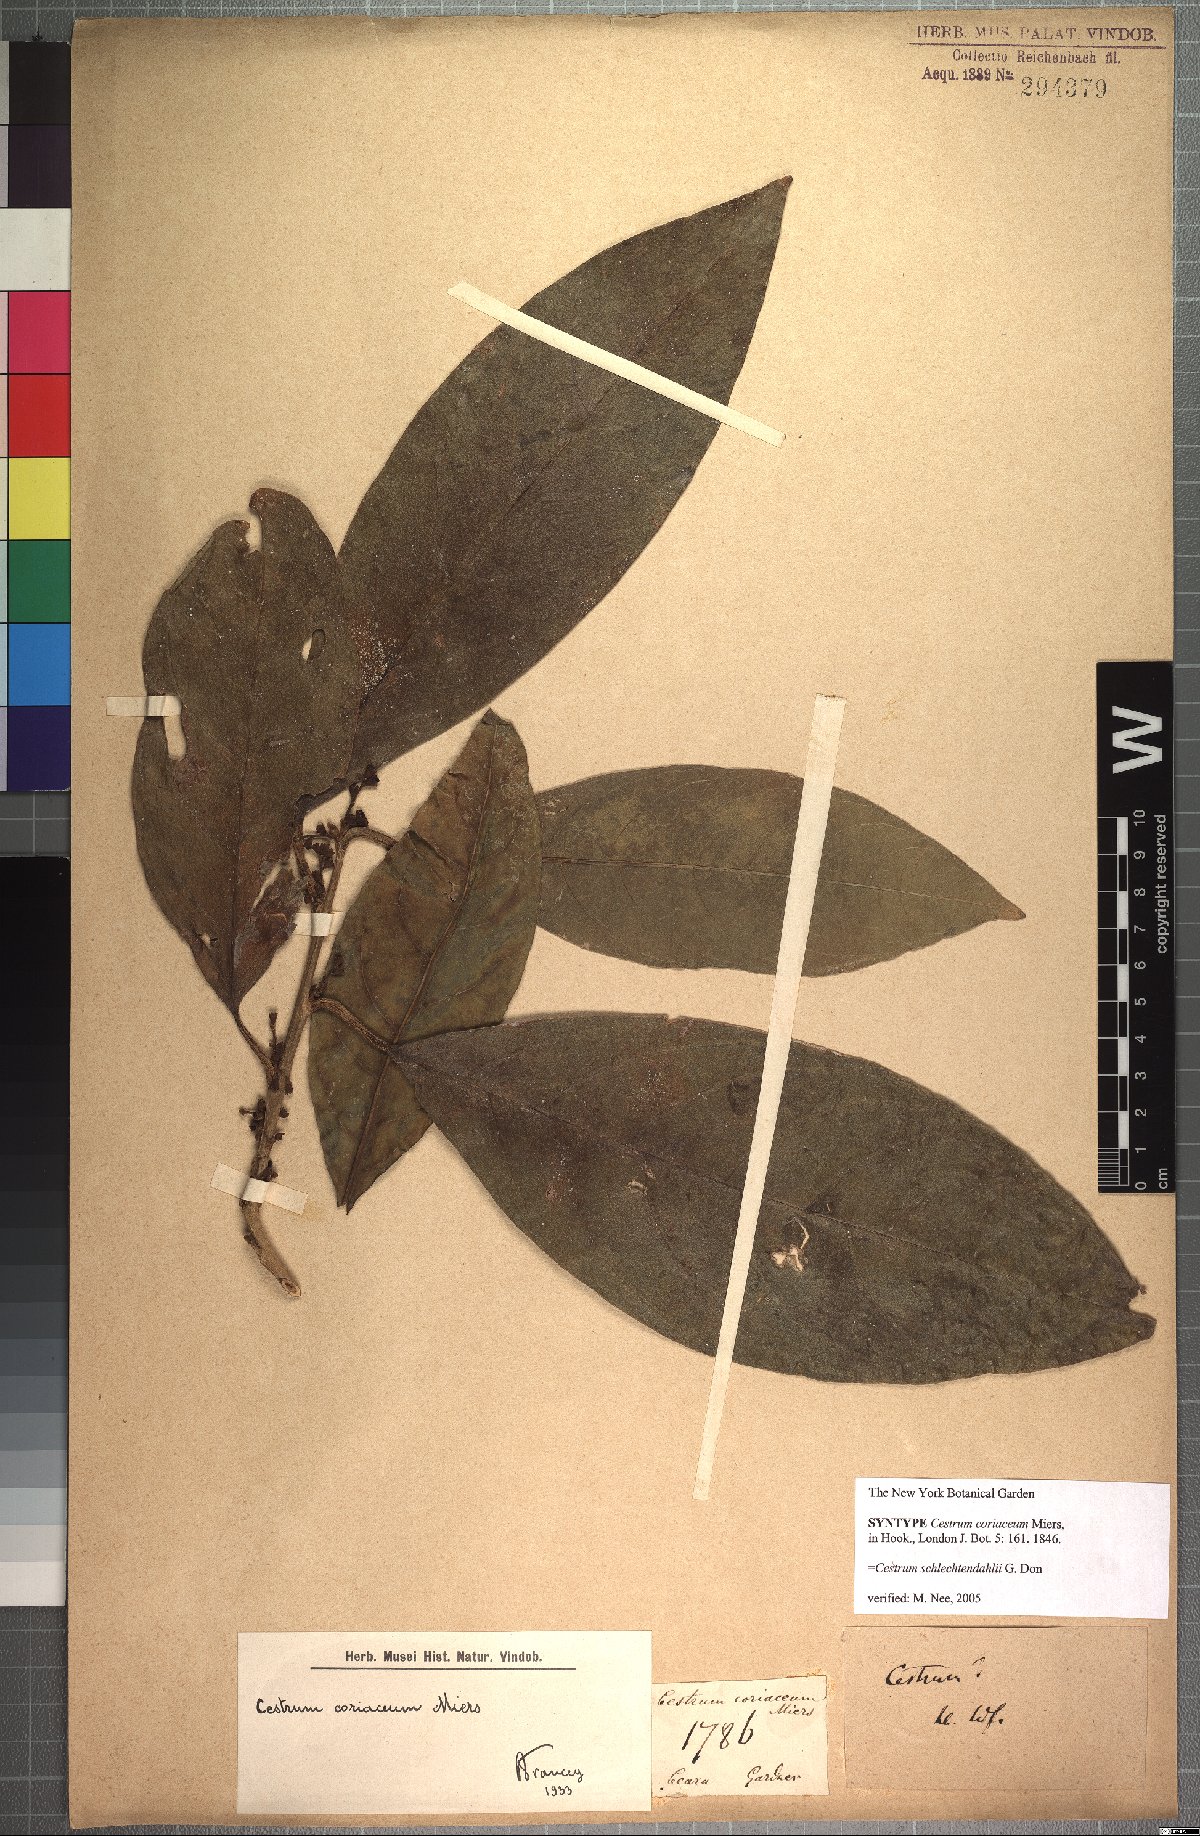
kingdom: Plantae
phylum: Tracheophyta
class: Magnoliopsida
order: Solanales
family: Solanaceae
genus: Cestrum
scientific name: Cestrum coriaceum
